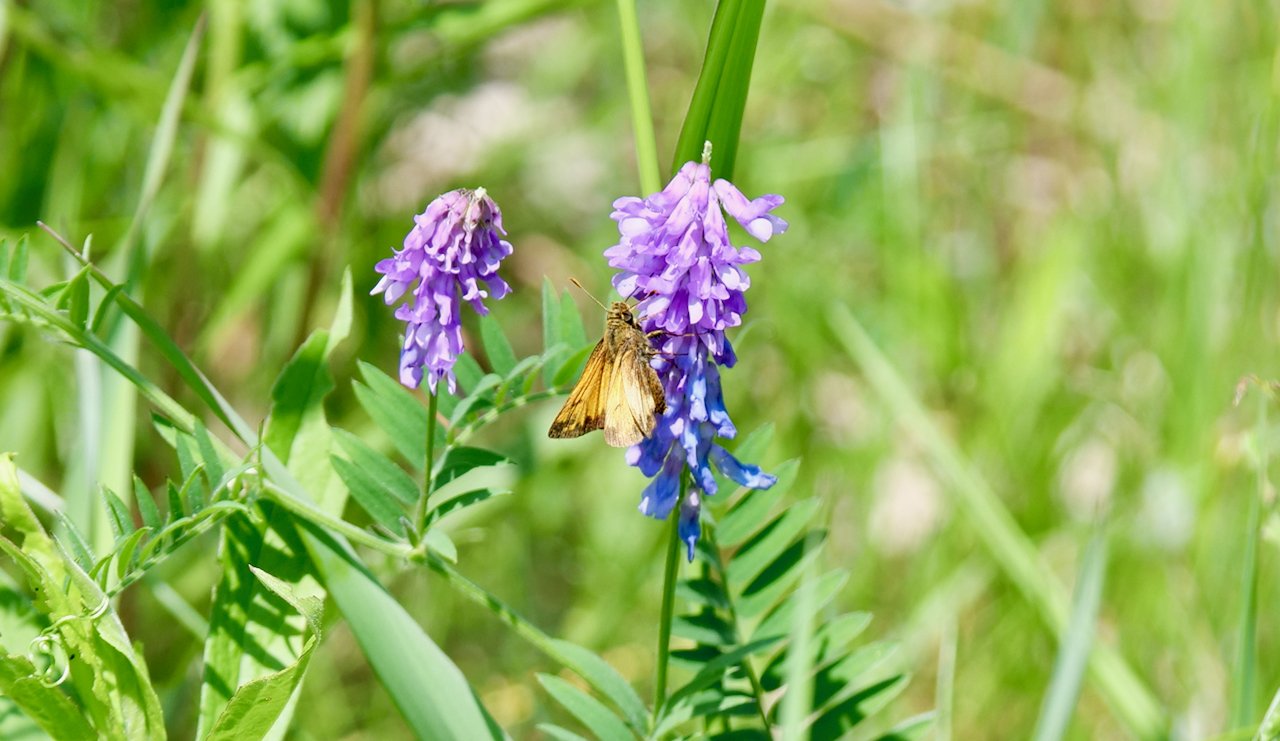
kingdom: Animalia
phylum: Arthropoda
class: Insecta
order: Lepidoptera
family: Hesperiidae
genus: Lon
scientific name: Lon hobomok
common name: Hobomok Skipper
